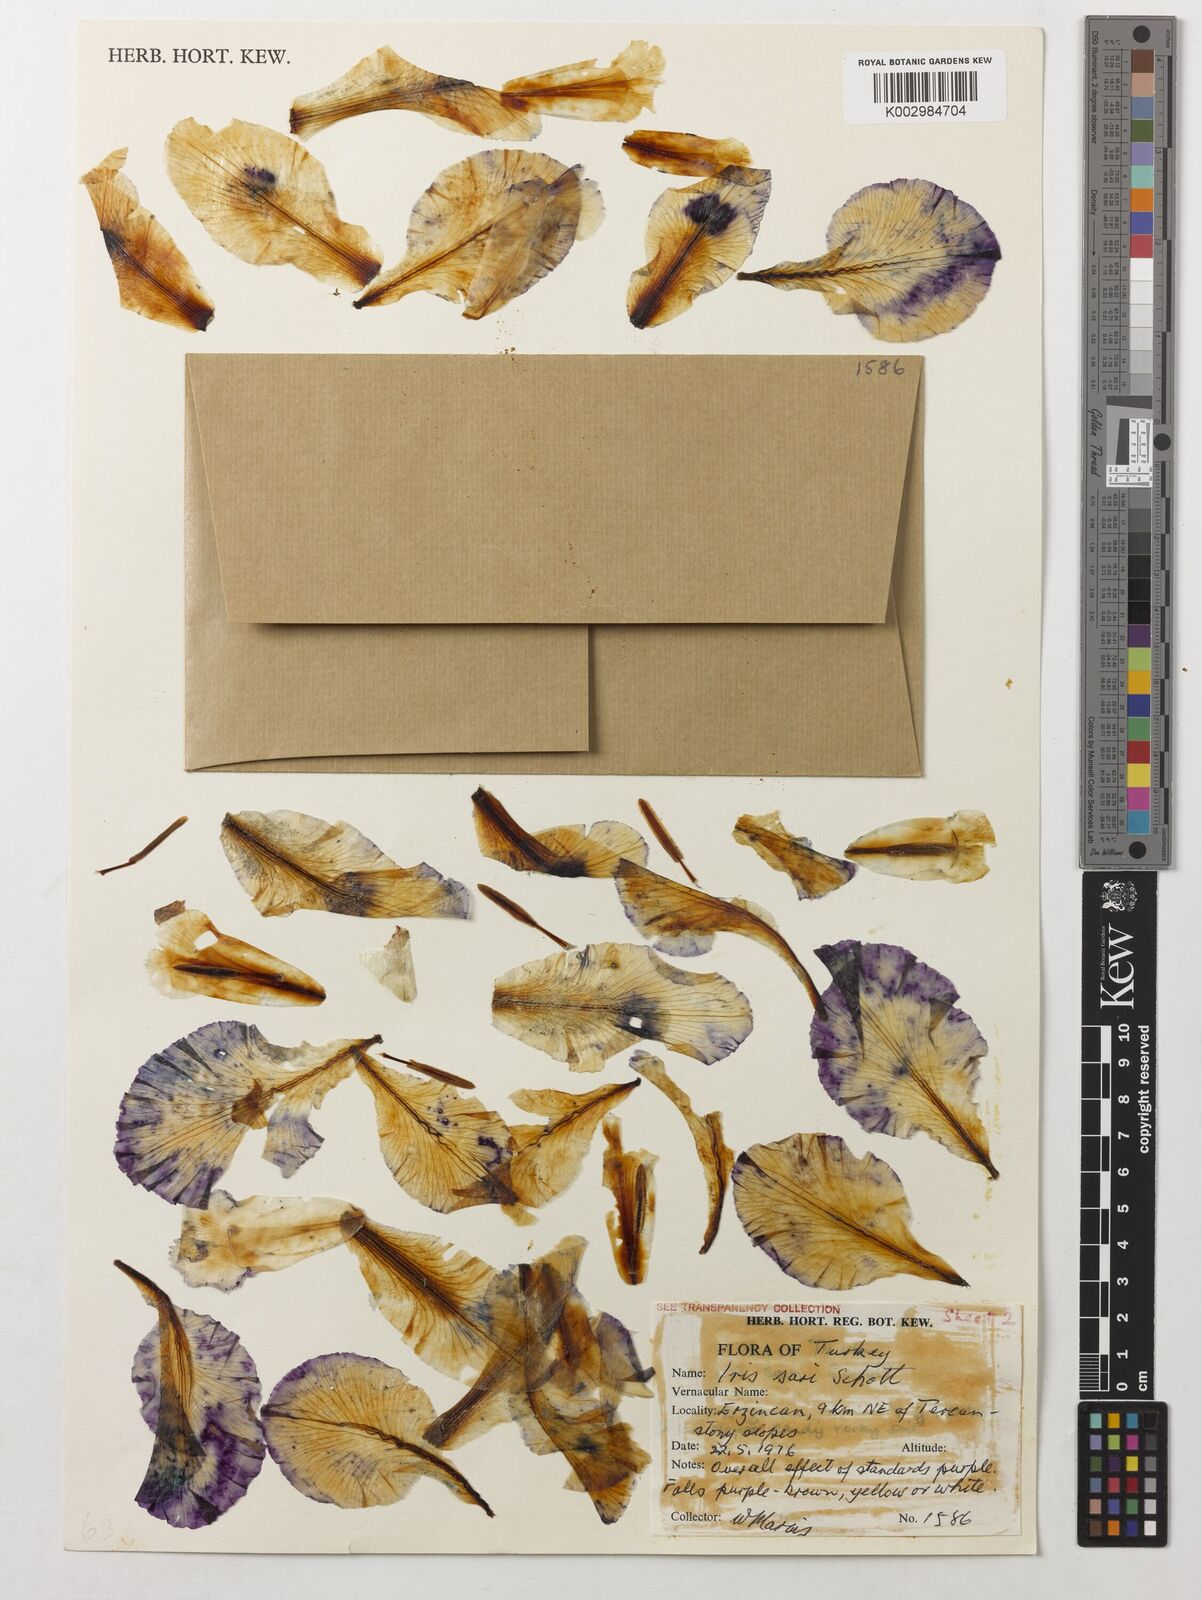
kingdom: Plantae
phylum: Tracheophyta
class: Liliopsida
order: Asparagales
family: Iridaceae
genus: Iris
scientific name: Iris sari
